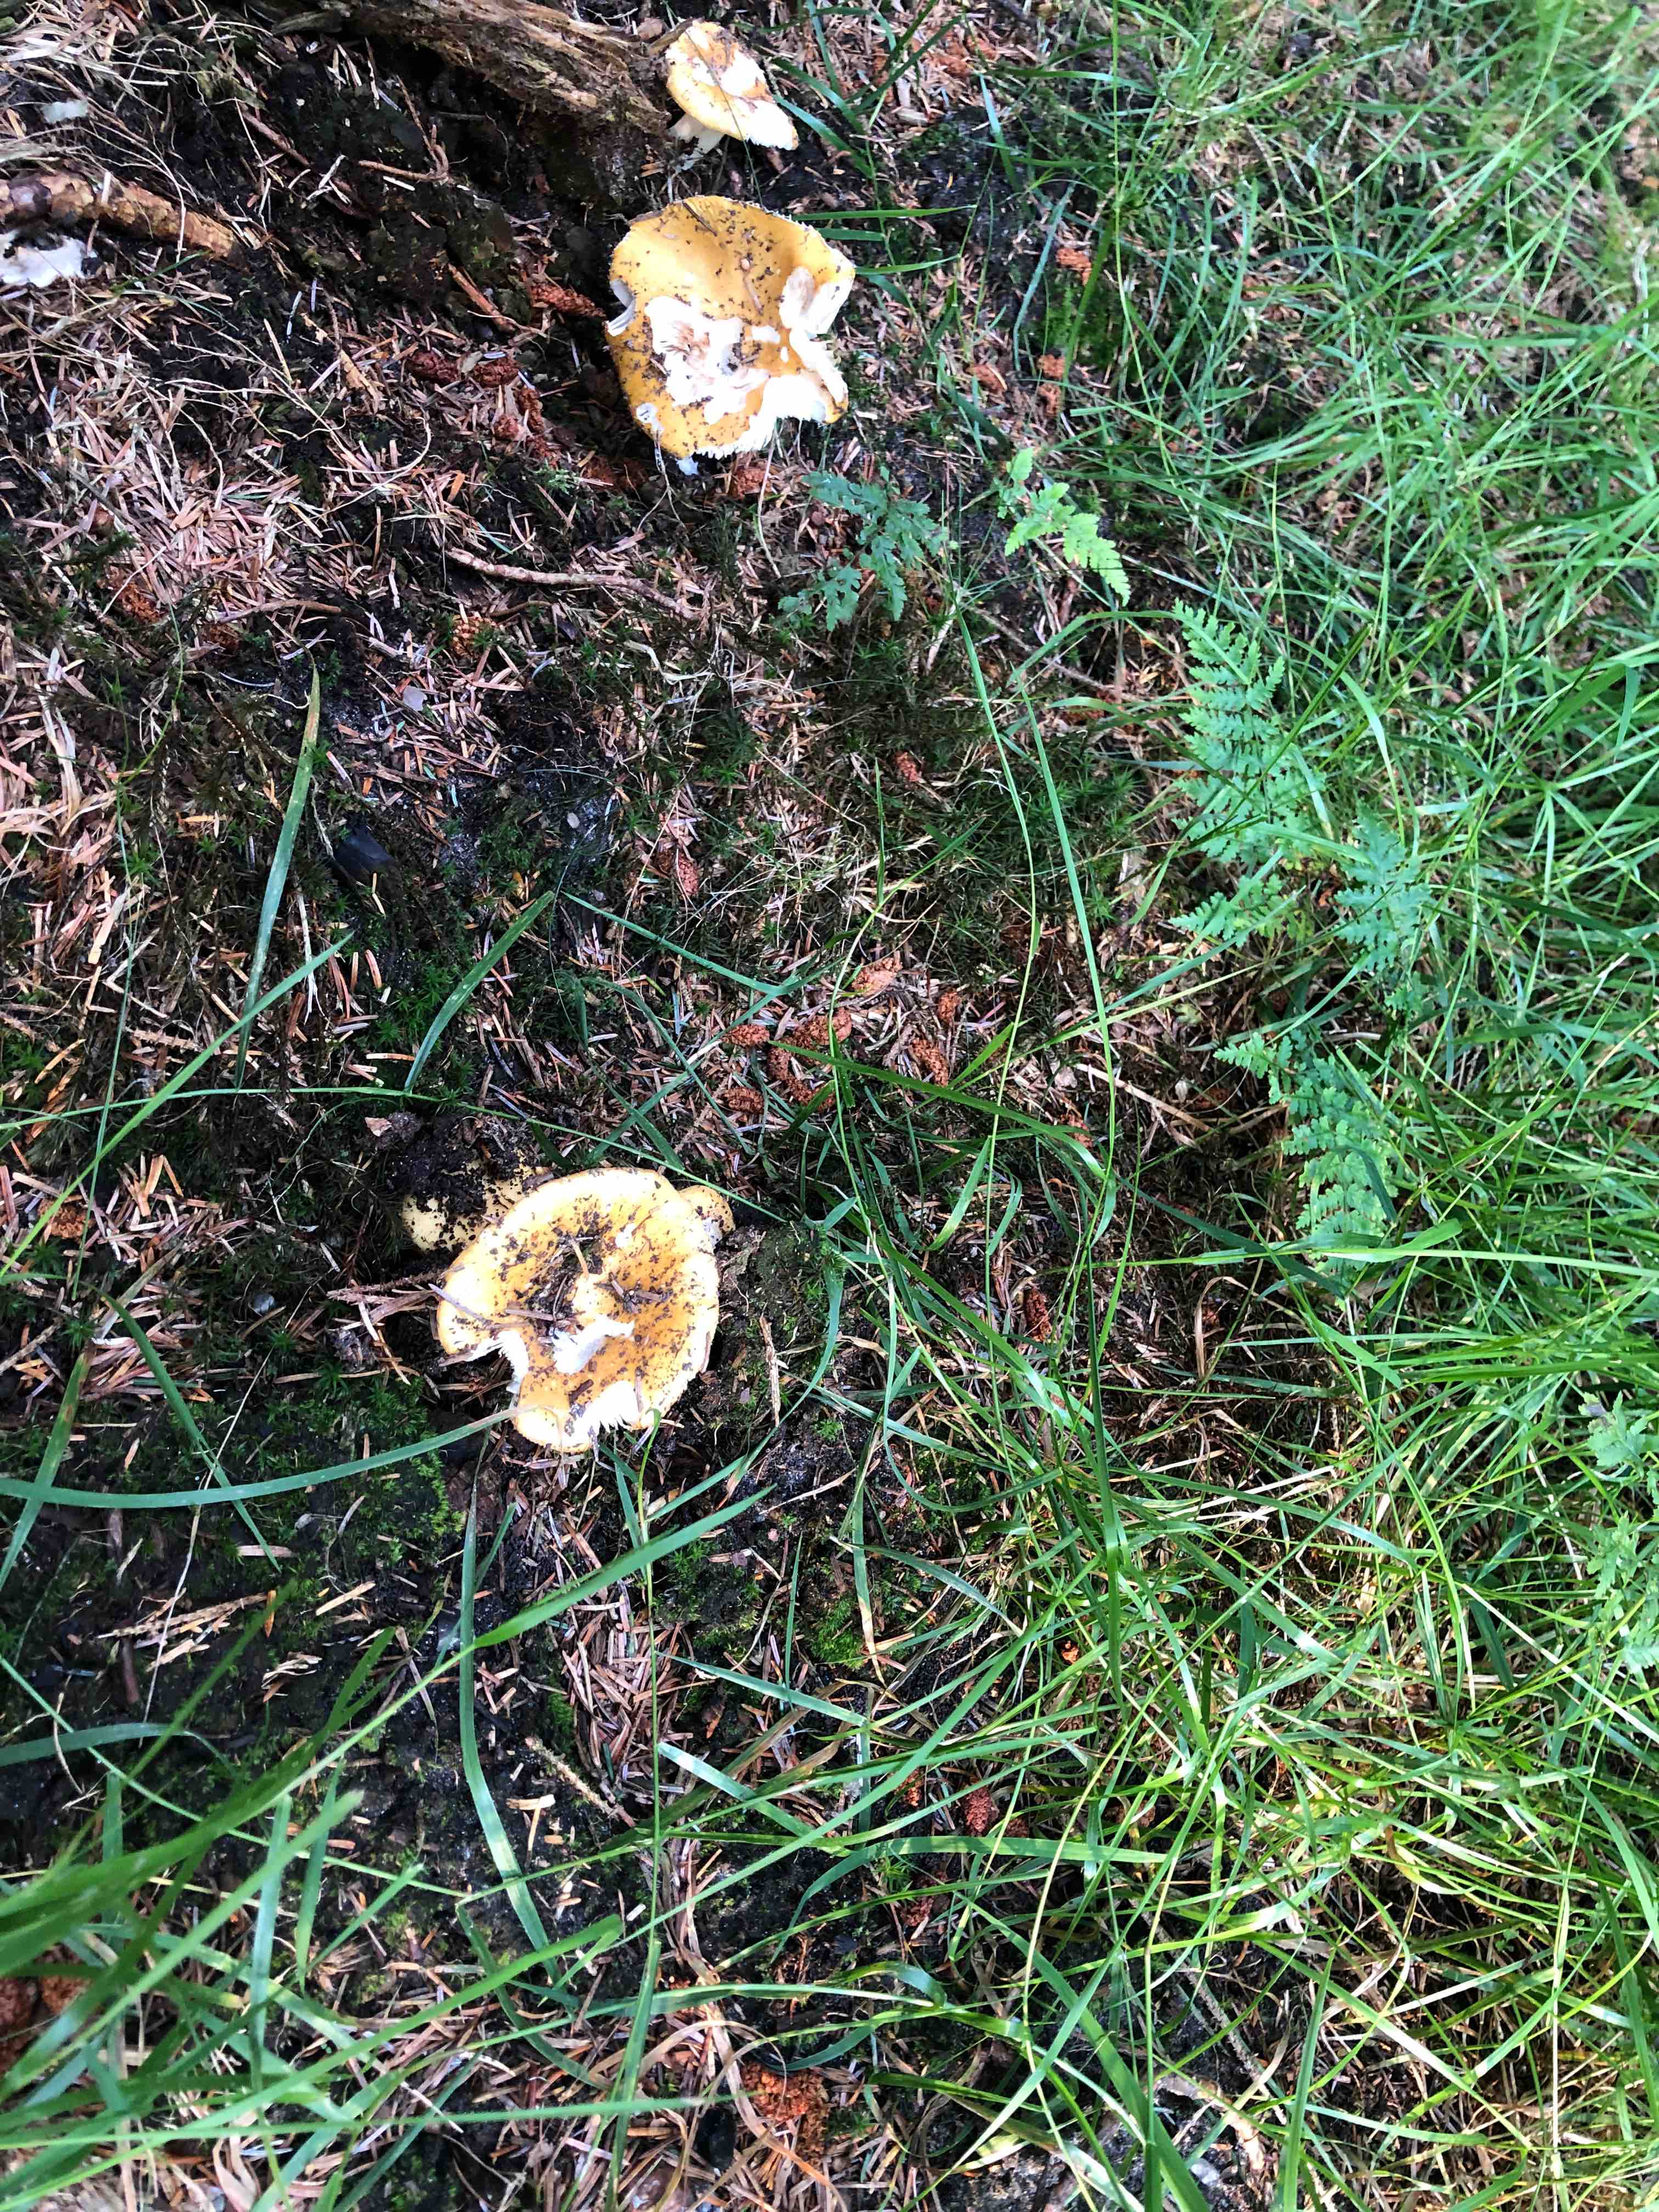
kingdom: Fungi
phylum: Basidiomycota
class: Agaricomycetes
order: Russulales
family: Russulaceae
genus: Russula
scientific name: Russula ochroleuca
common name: okkergul skørhat
